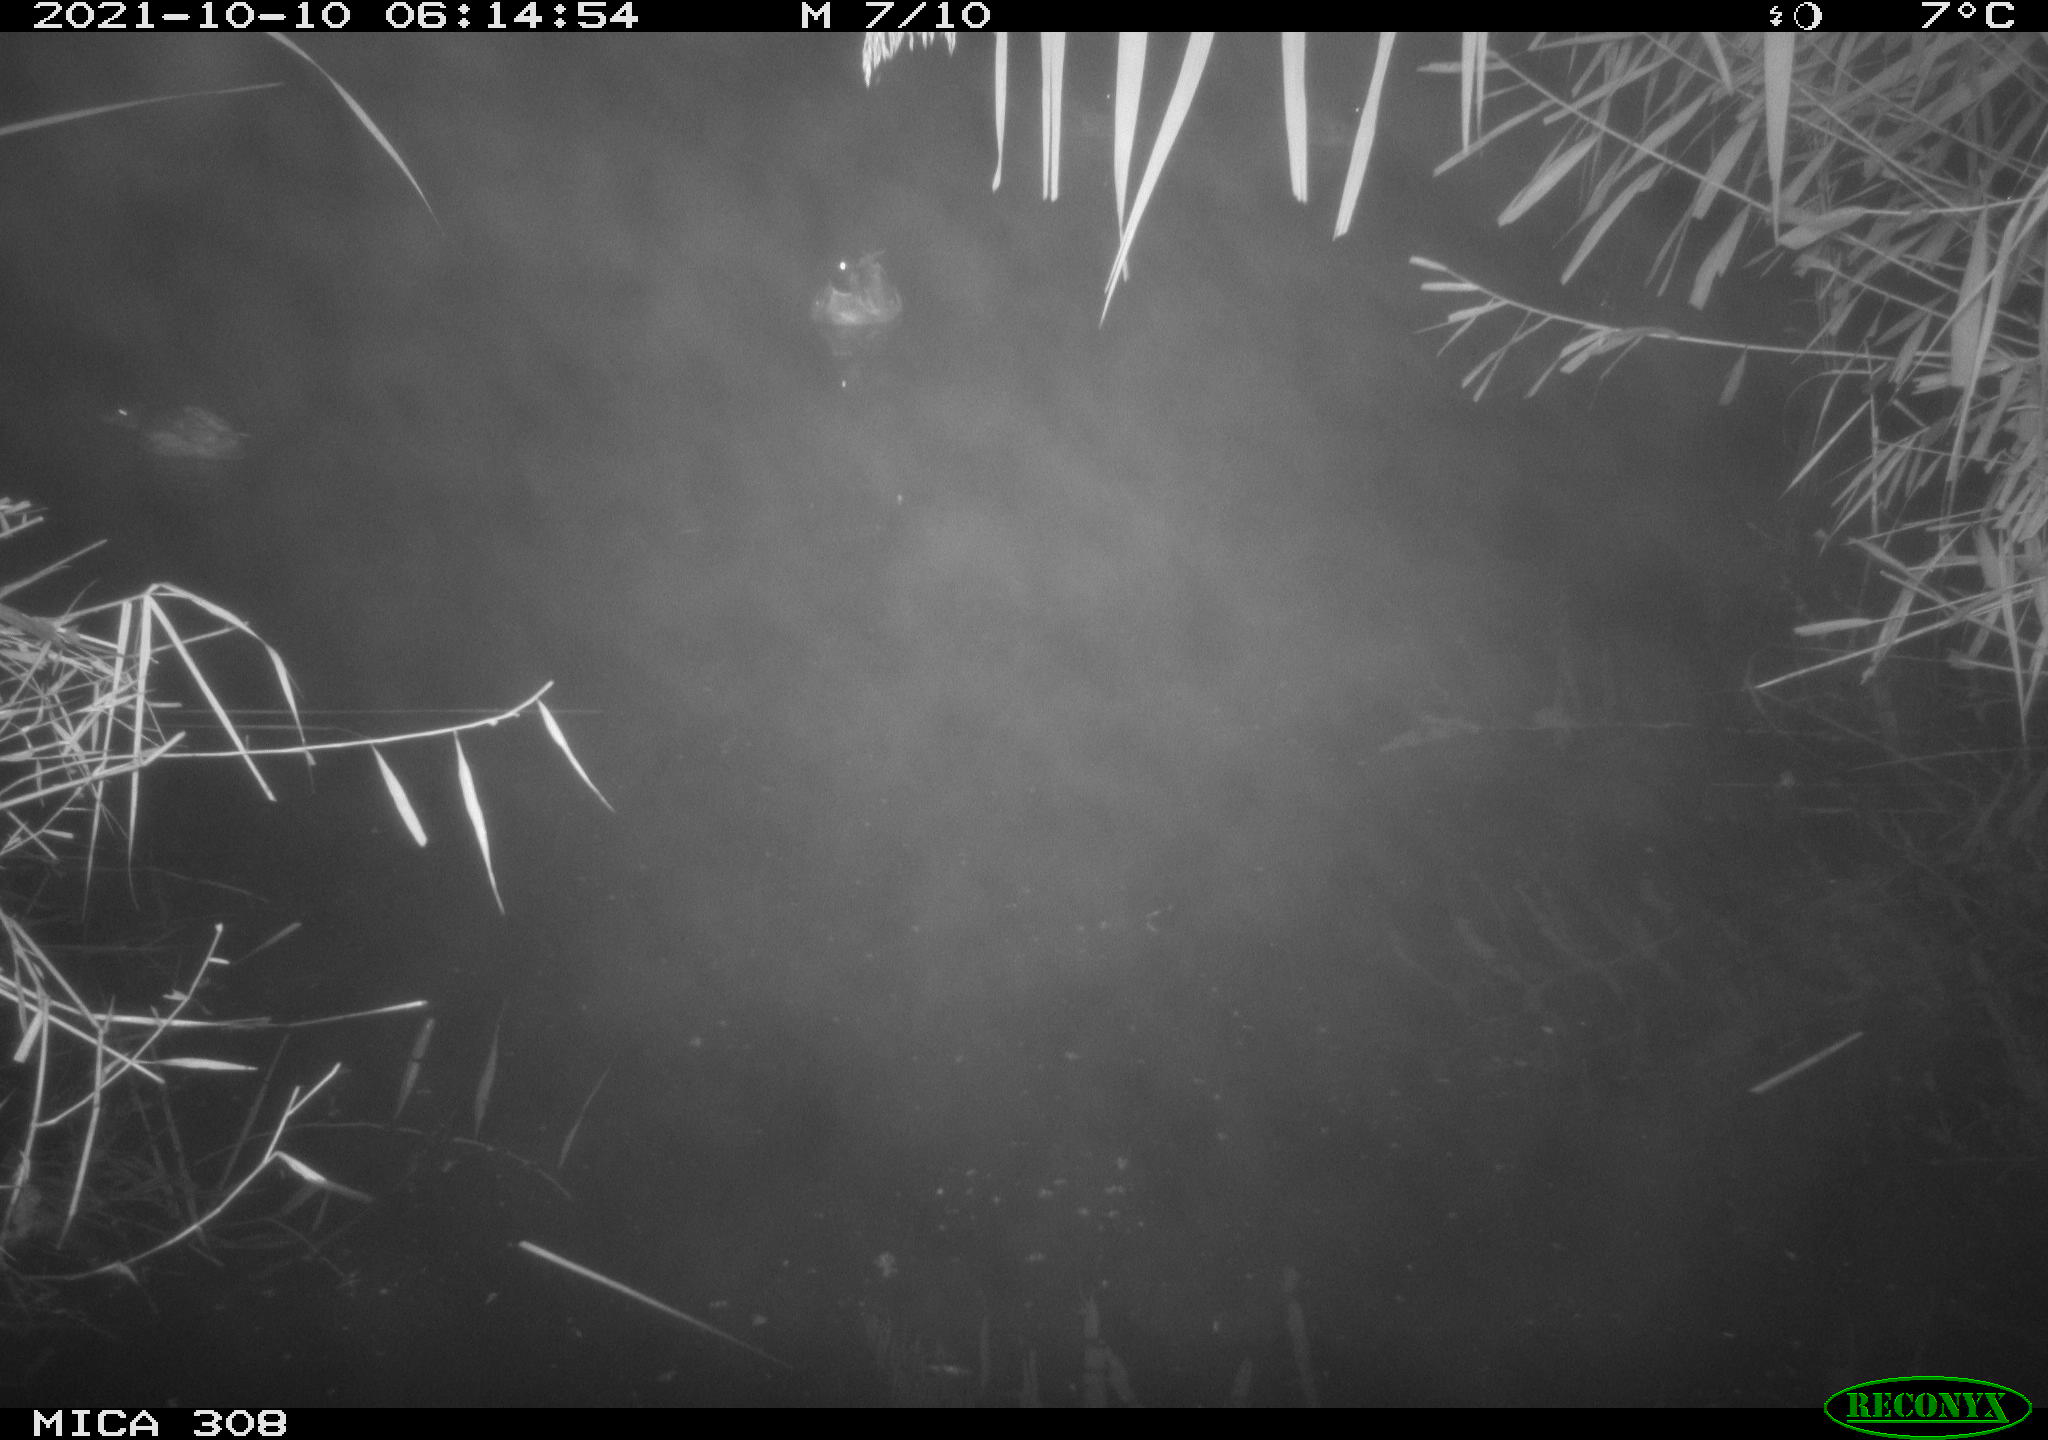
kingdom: Animalia
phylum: Chordata
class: Aves
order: Anseriformes
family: Anatidae
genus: Anas
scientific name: Anas platyrhynchos
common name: Mallard
